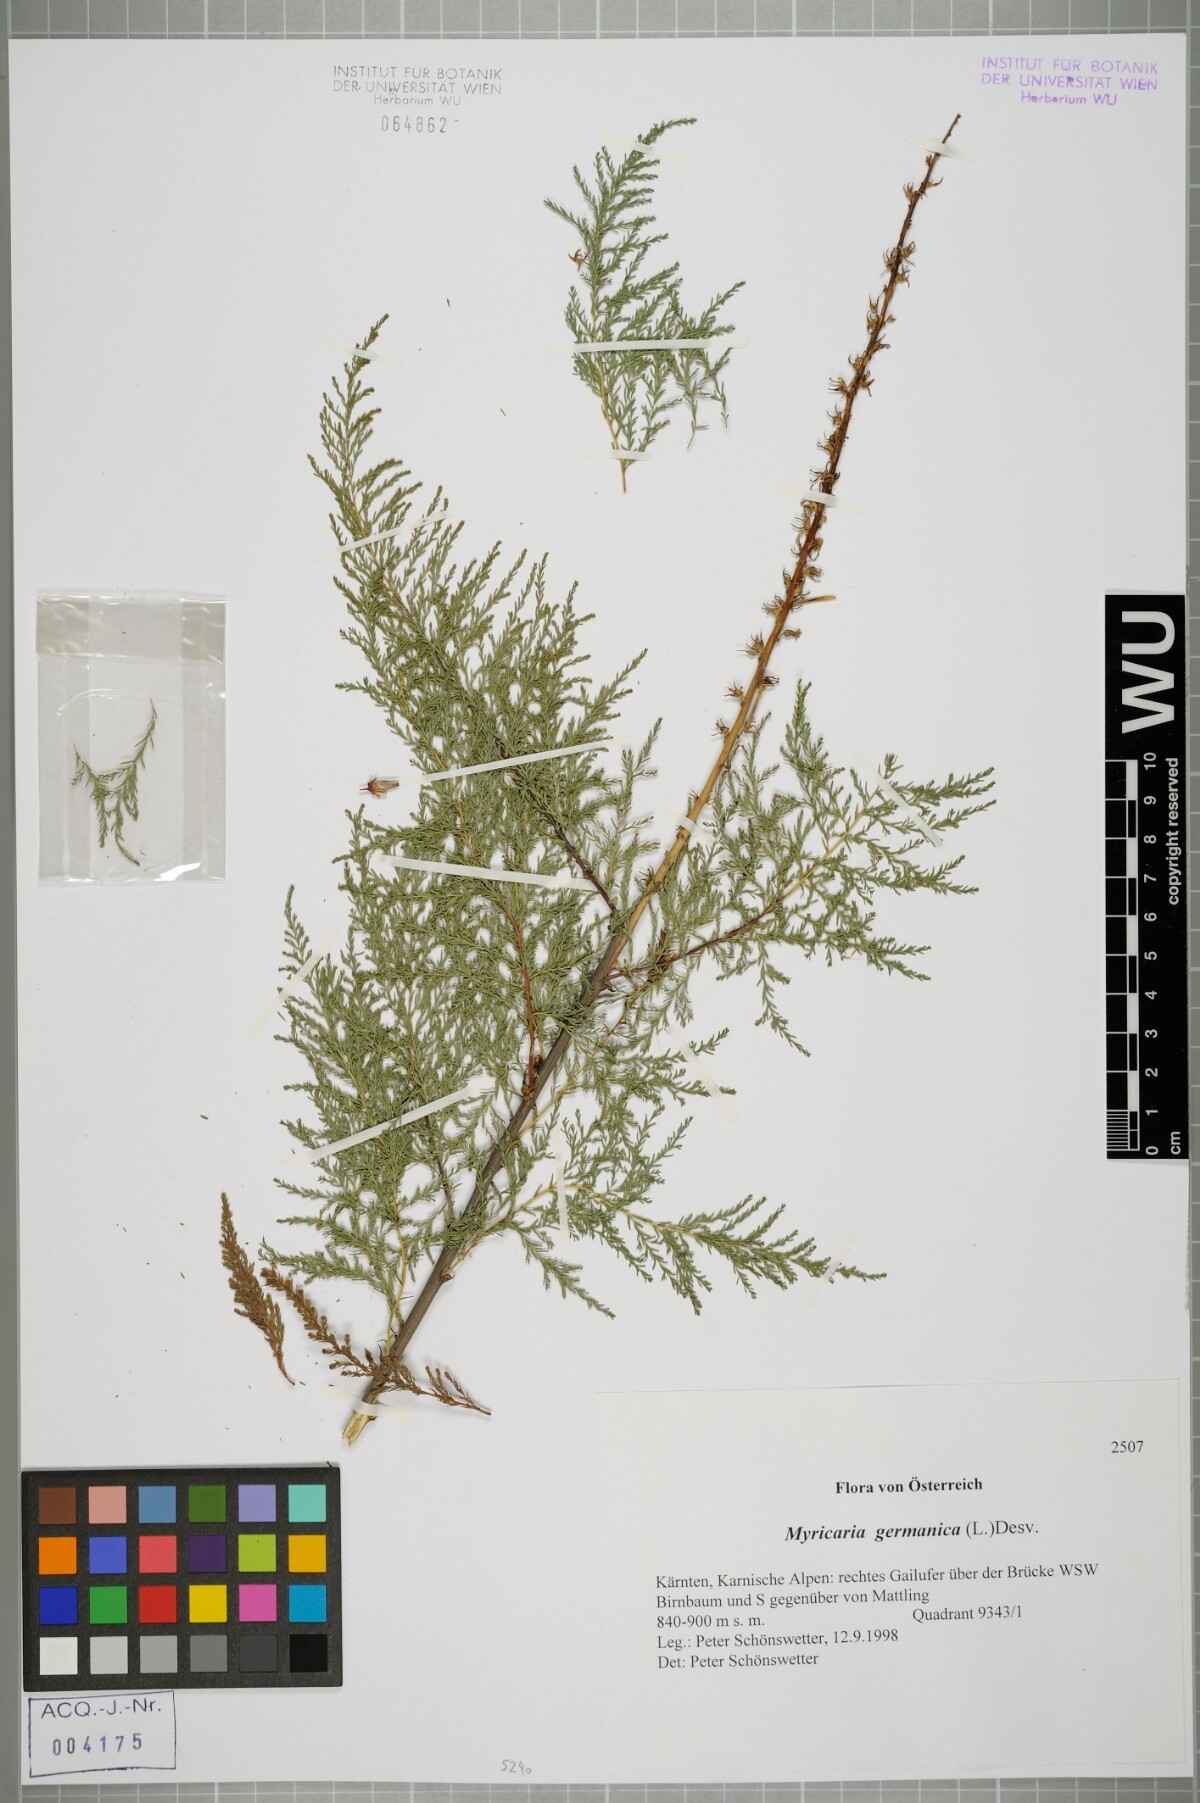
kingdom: Plantae
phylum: Tracheophyta
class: Magnoliopsida
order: Caryophyllales
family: Tamaricaceae
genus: Myricaria
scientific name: Myricaria germanica
